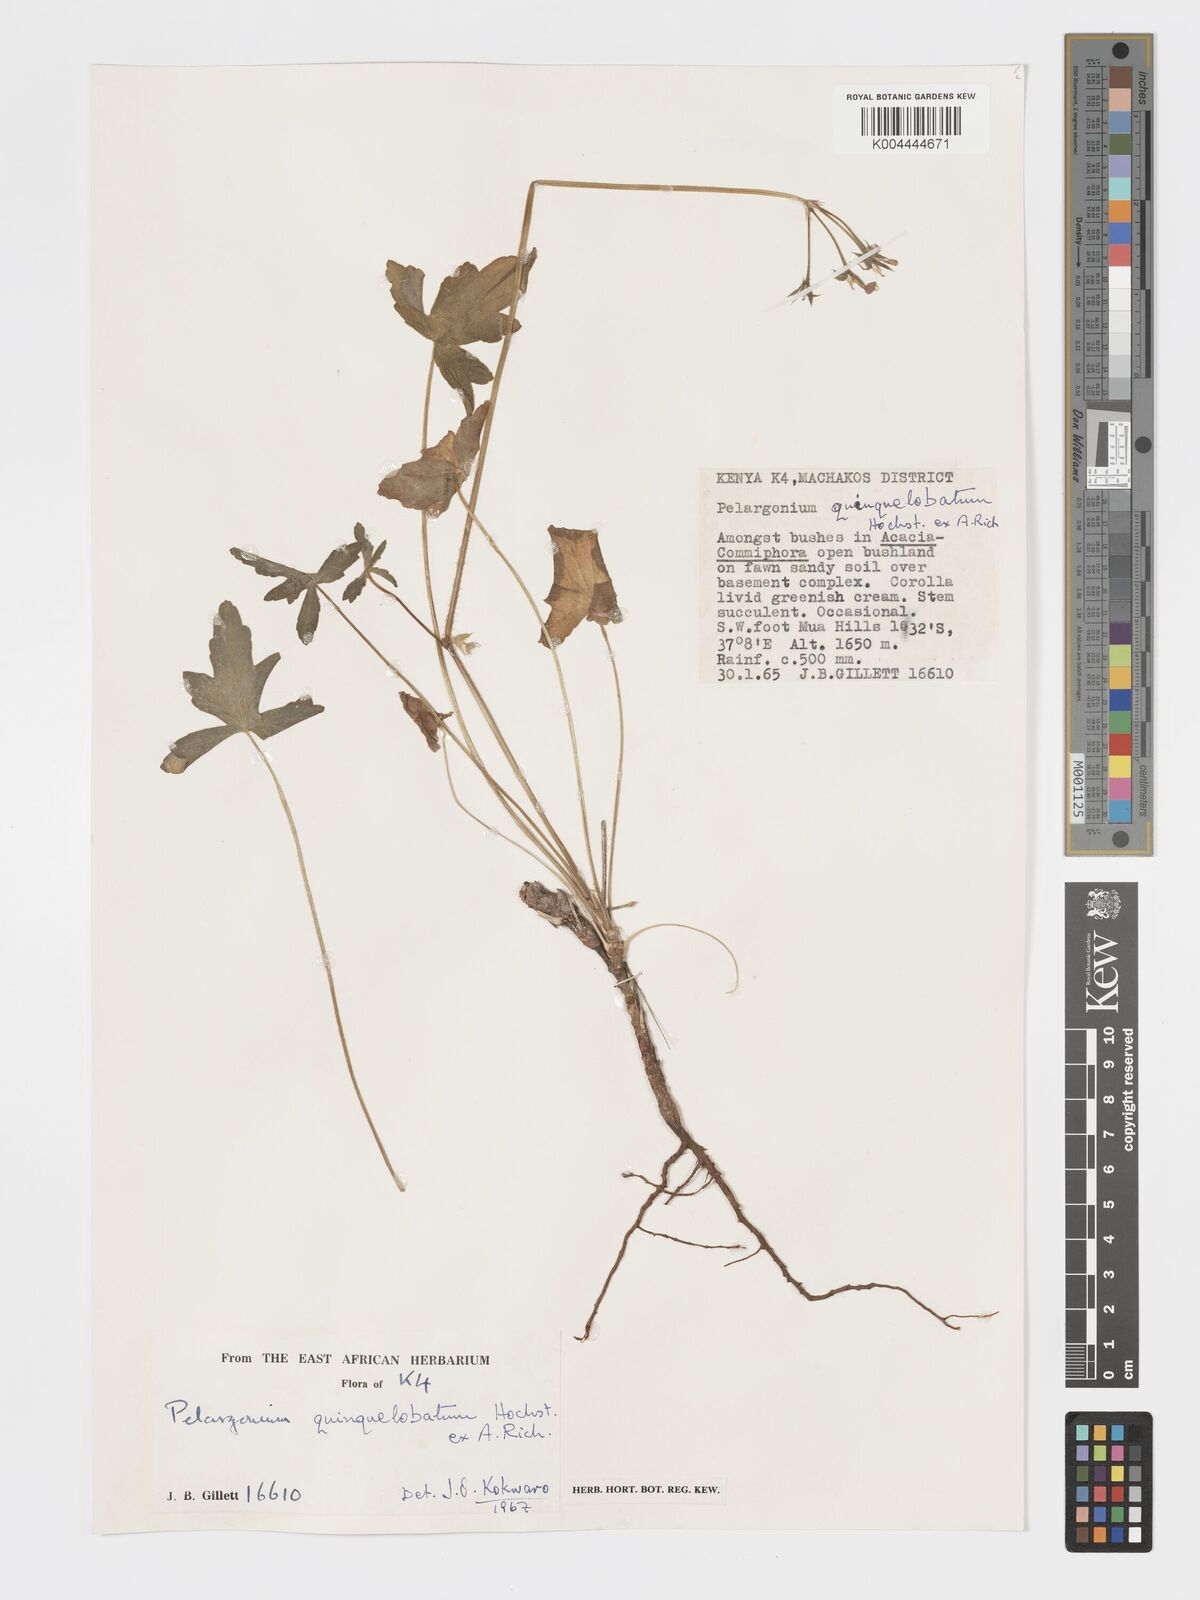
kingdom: Plantae
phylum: Tracheophyta
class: Magnoliopsida
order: Geraniales
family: Geraniaceae
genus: Pelargonium
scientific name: Pelargonium quinquelobatum
